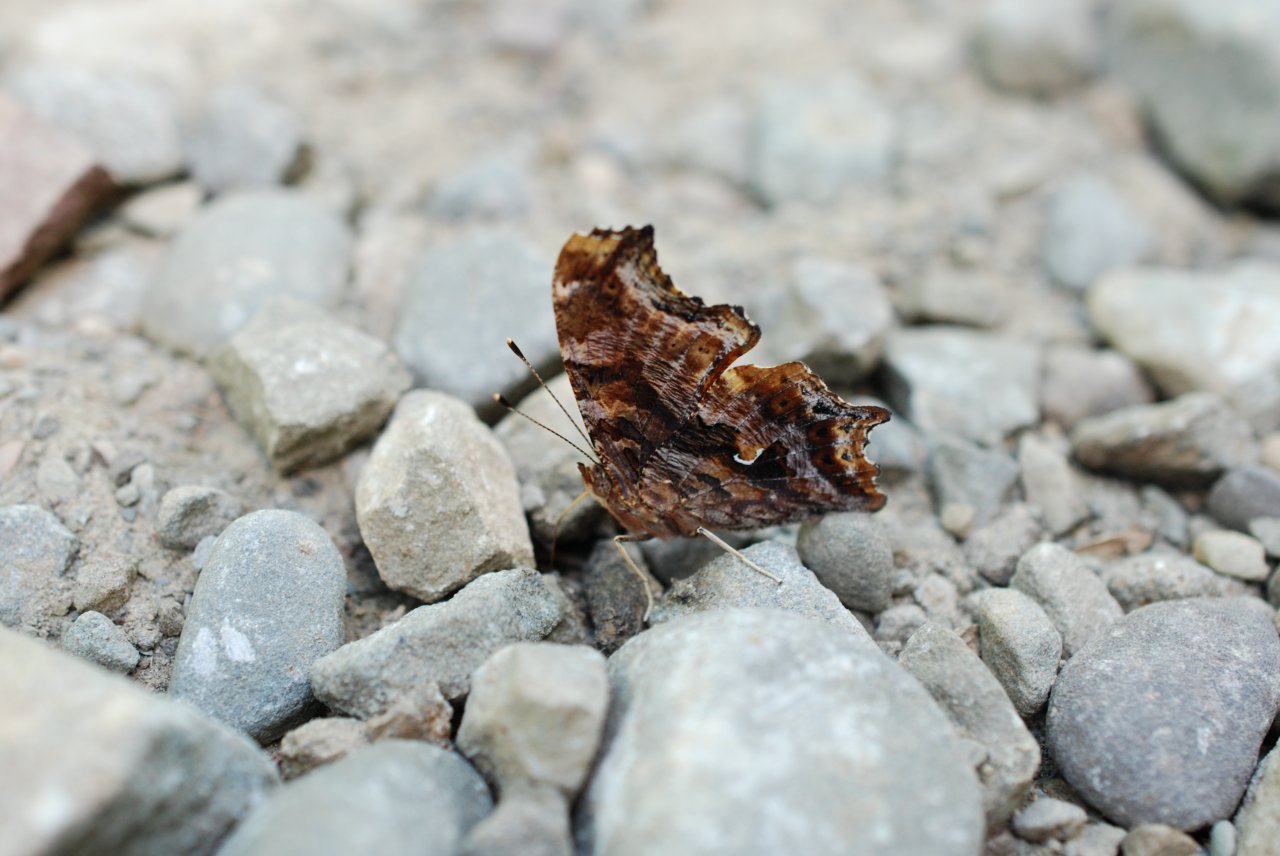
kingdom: Animalia
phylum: Arthropoda
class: Insecta
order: Lepidoptera
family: Nymphalidae
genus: Polygonia
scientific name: Polygonia comma
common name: Eastern Comma
